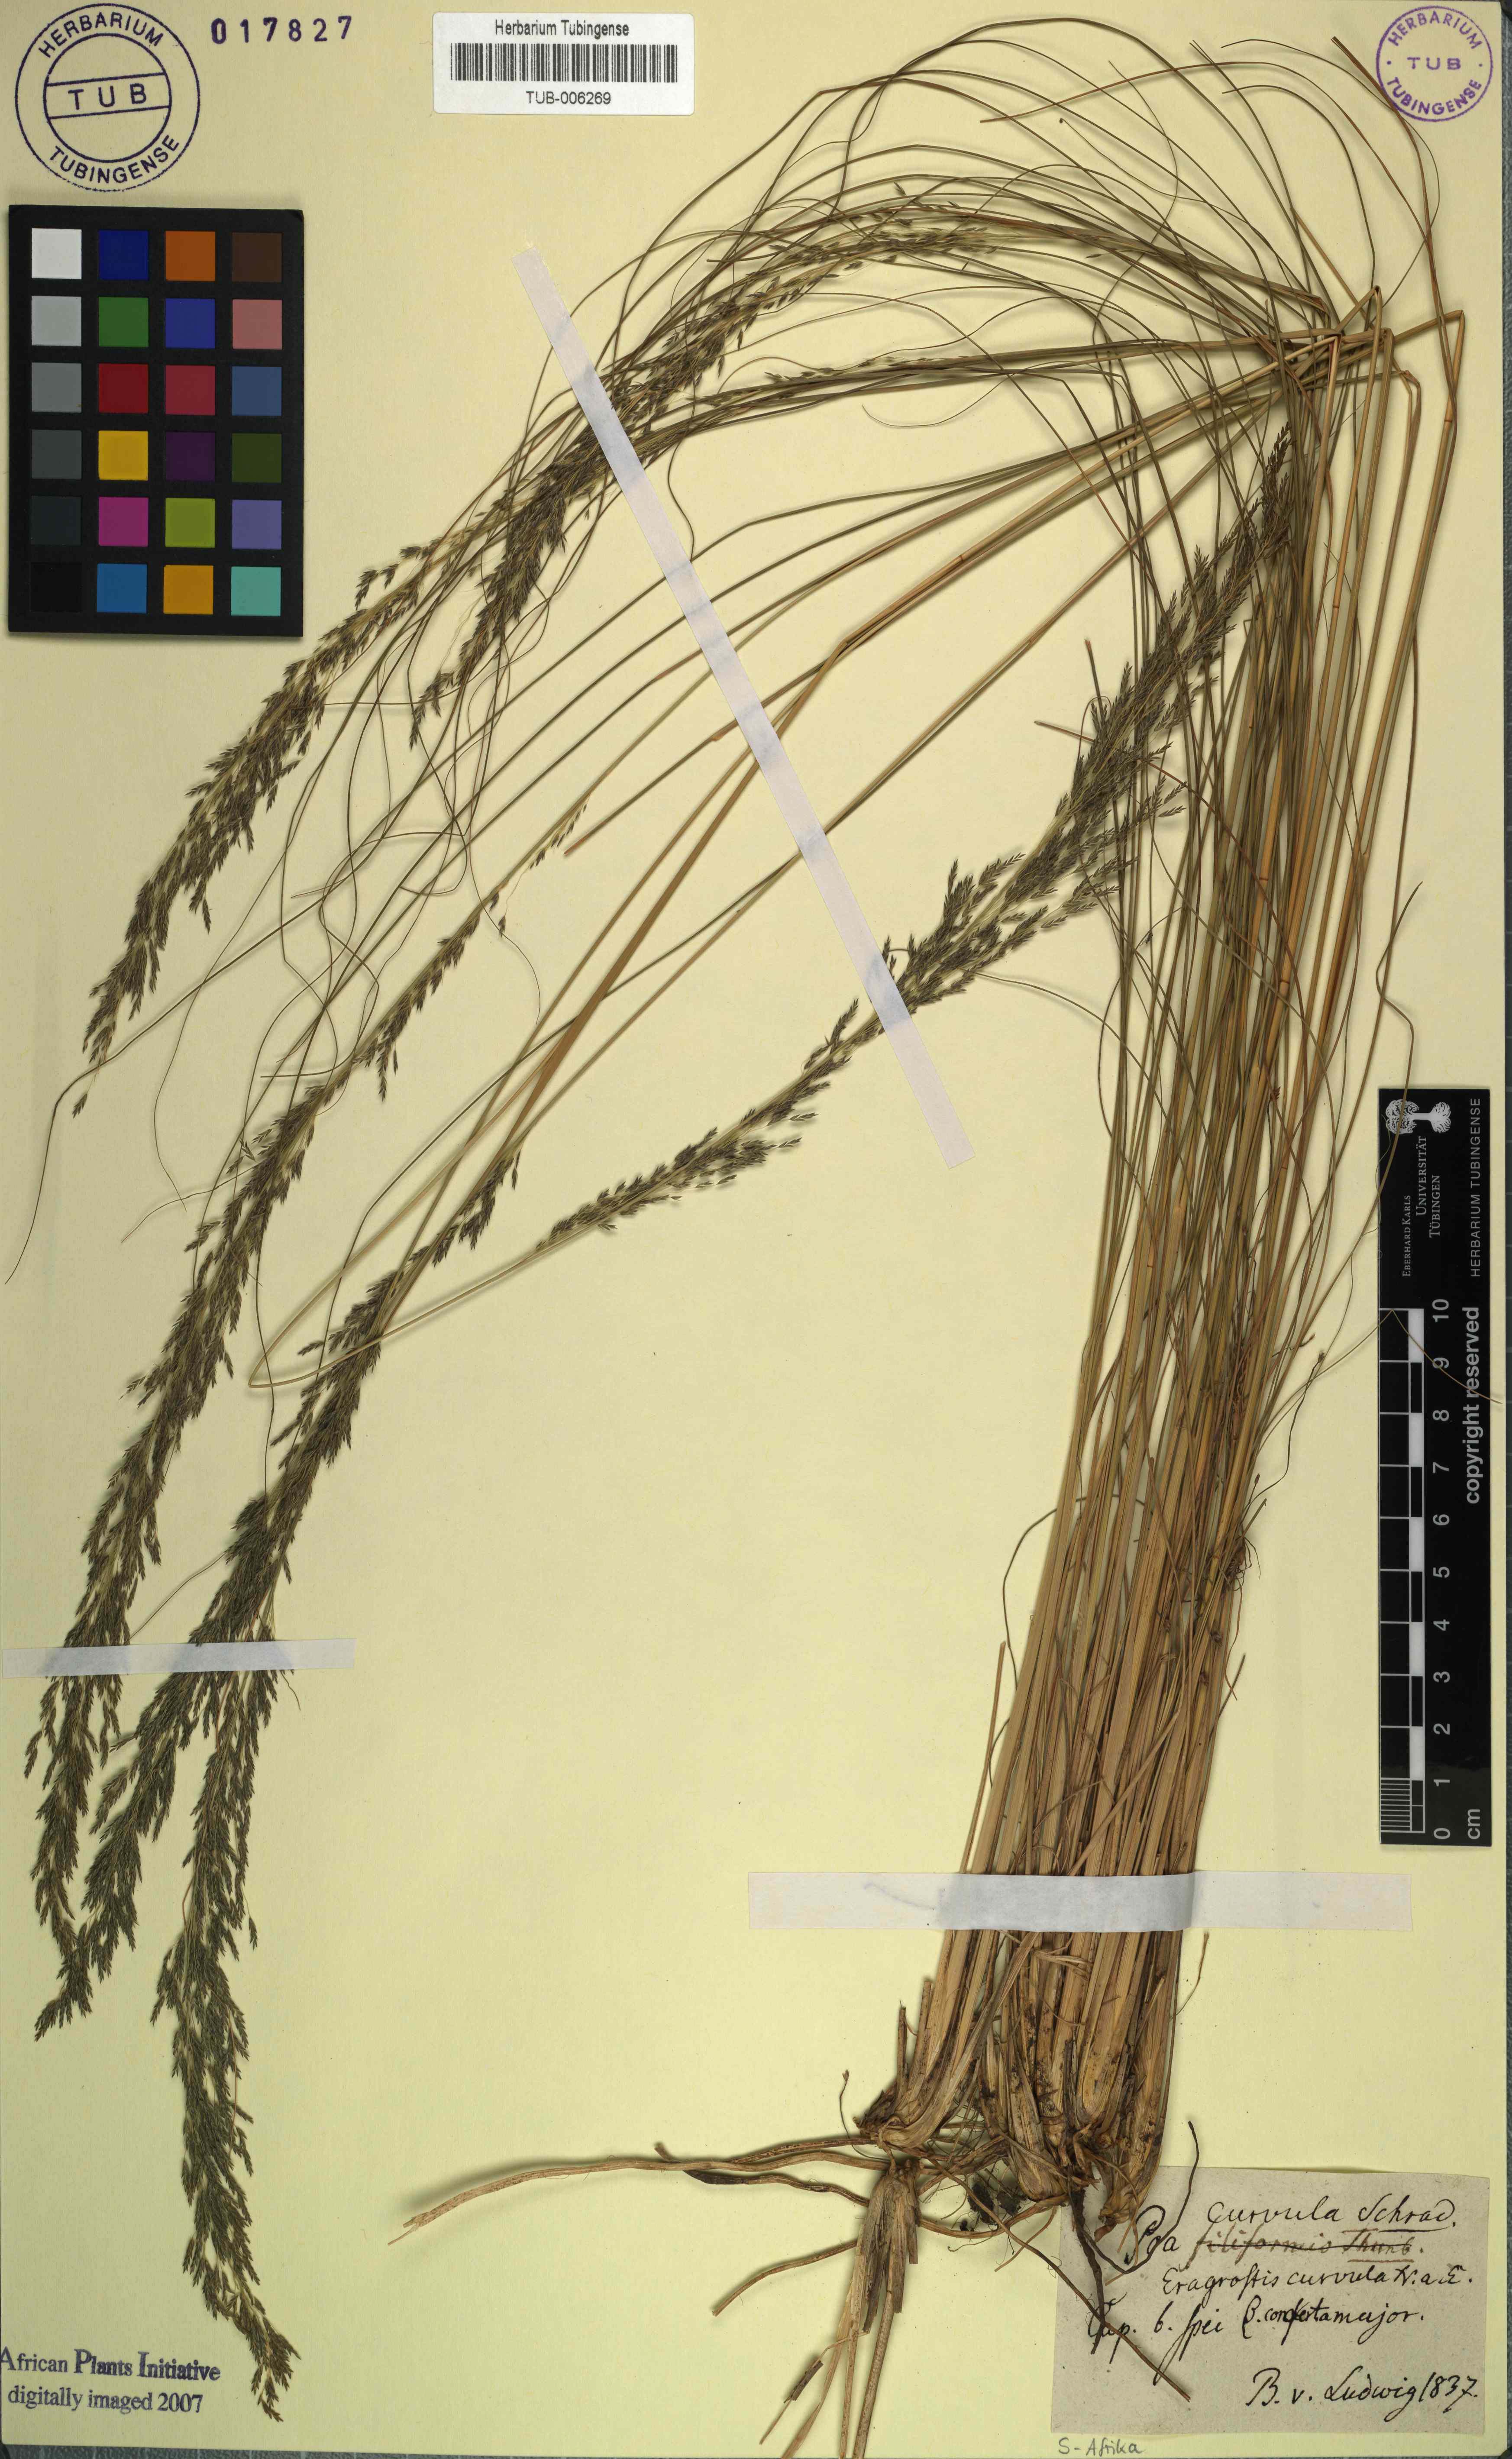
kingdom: Plantae
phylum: Tracheophyta
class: Liliopsida
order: Poales
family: Poaceae
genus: Eragrostis
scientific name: Eragrostis curvula
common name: African love-grass
